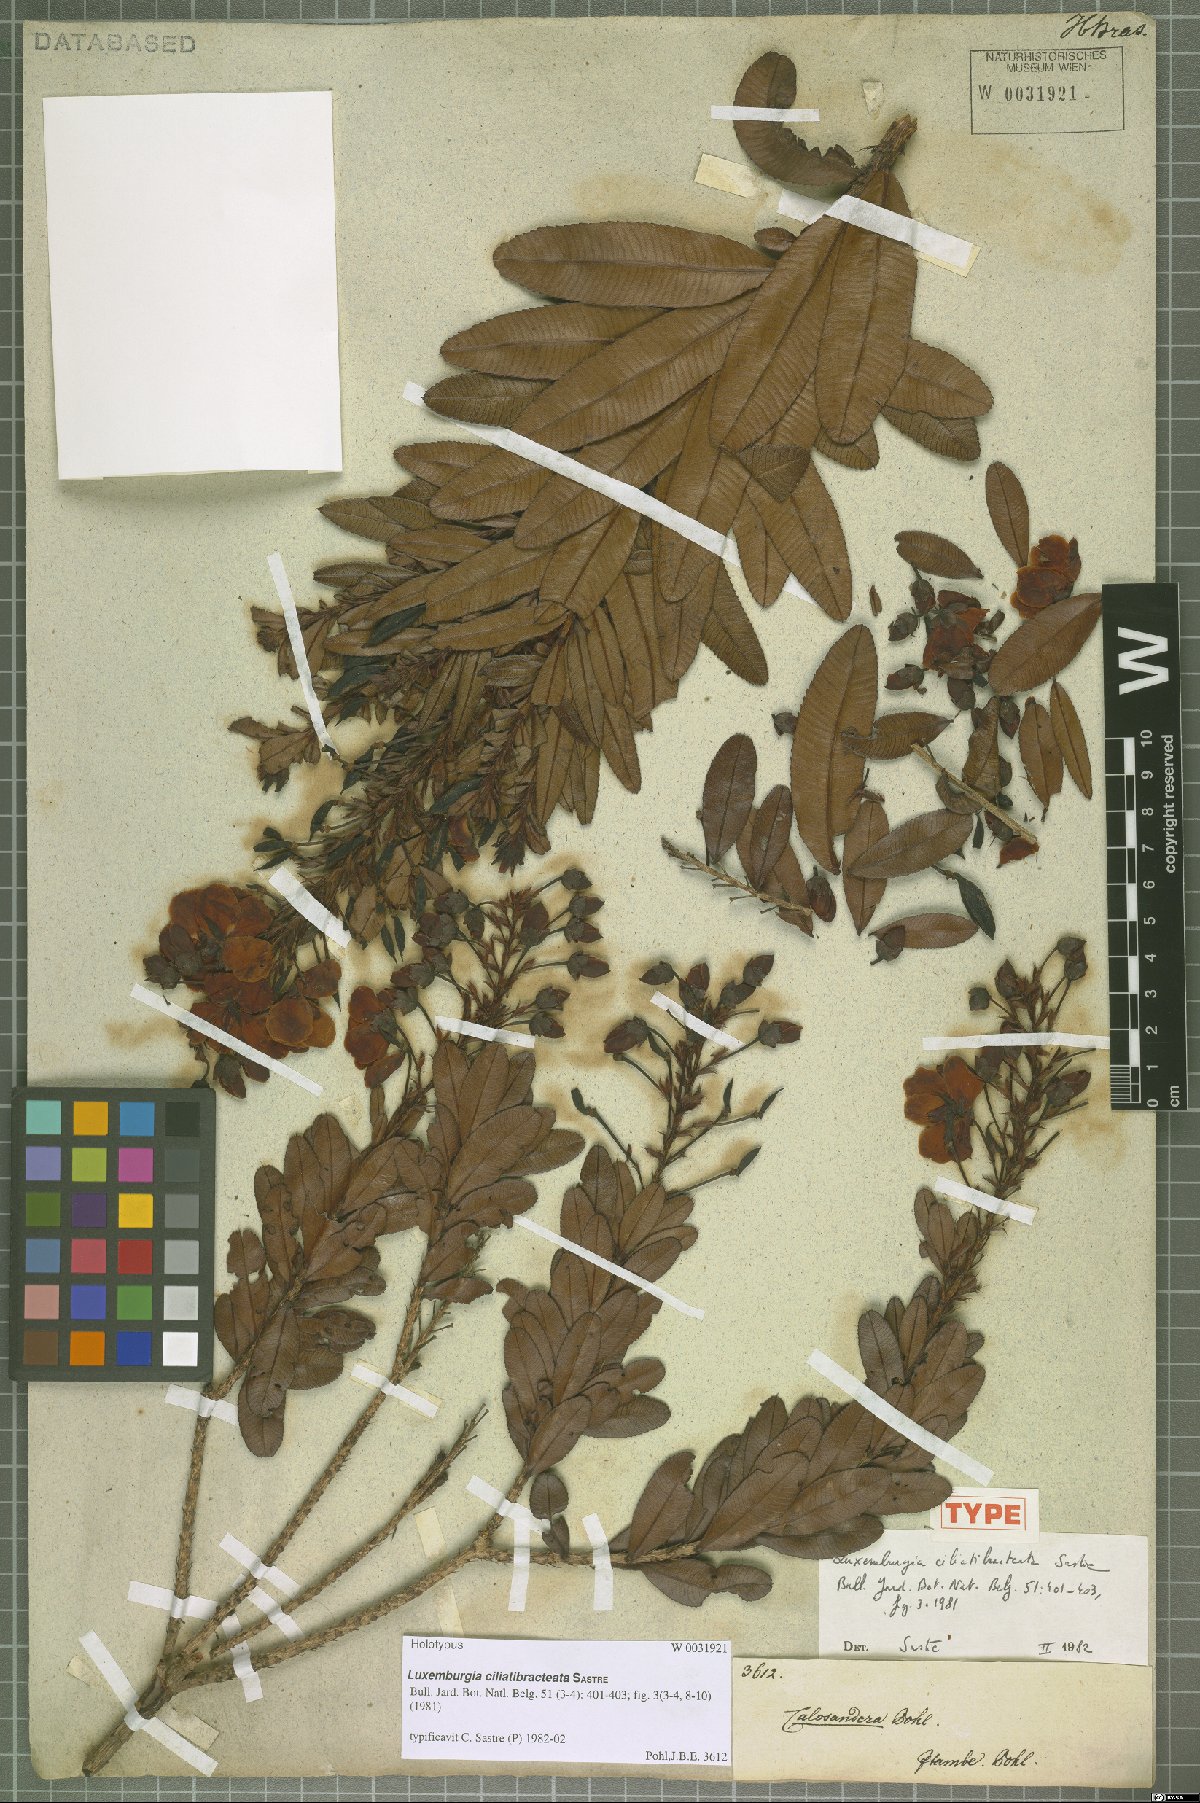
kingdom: Plantae
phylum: Tracheophyta
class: Magnoliopsida
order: Malpighiales
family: Ochnaceae
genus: Luxemburgia
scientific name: Luxemburgia ciliatibracteata
